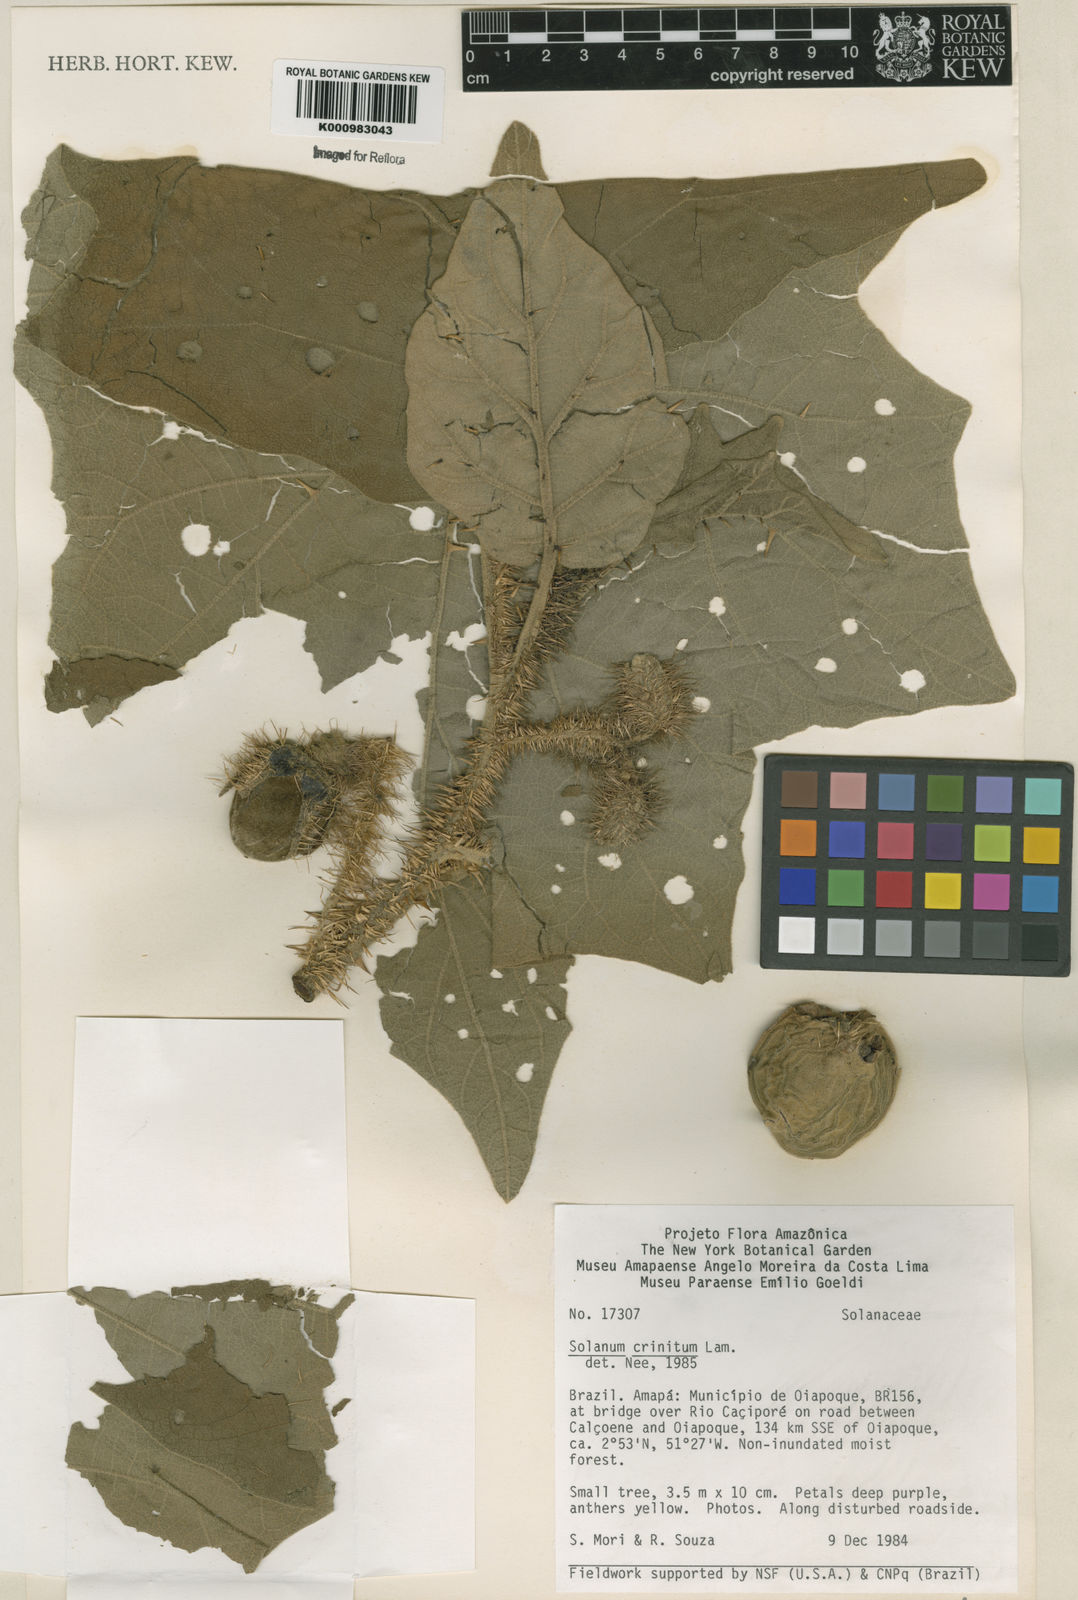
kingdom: Plantae
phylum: Tracheophyta
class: Magnoliopsida
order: Solanales
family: Solanaceae
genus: Solanum
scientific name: Solanum crinitum
